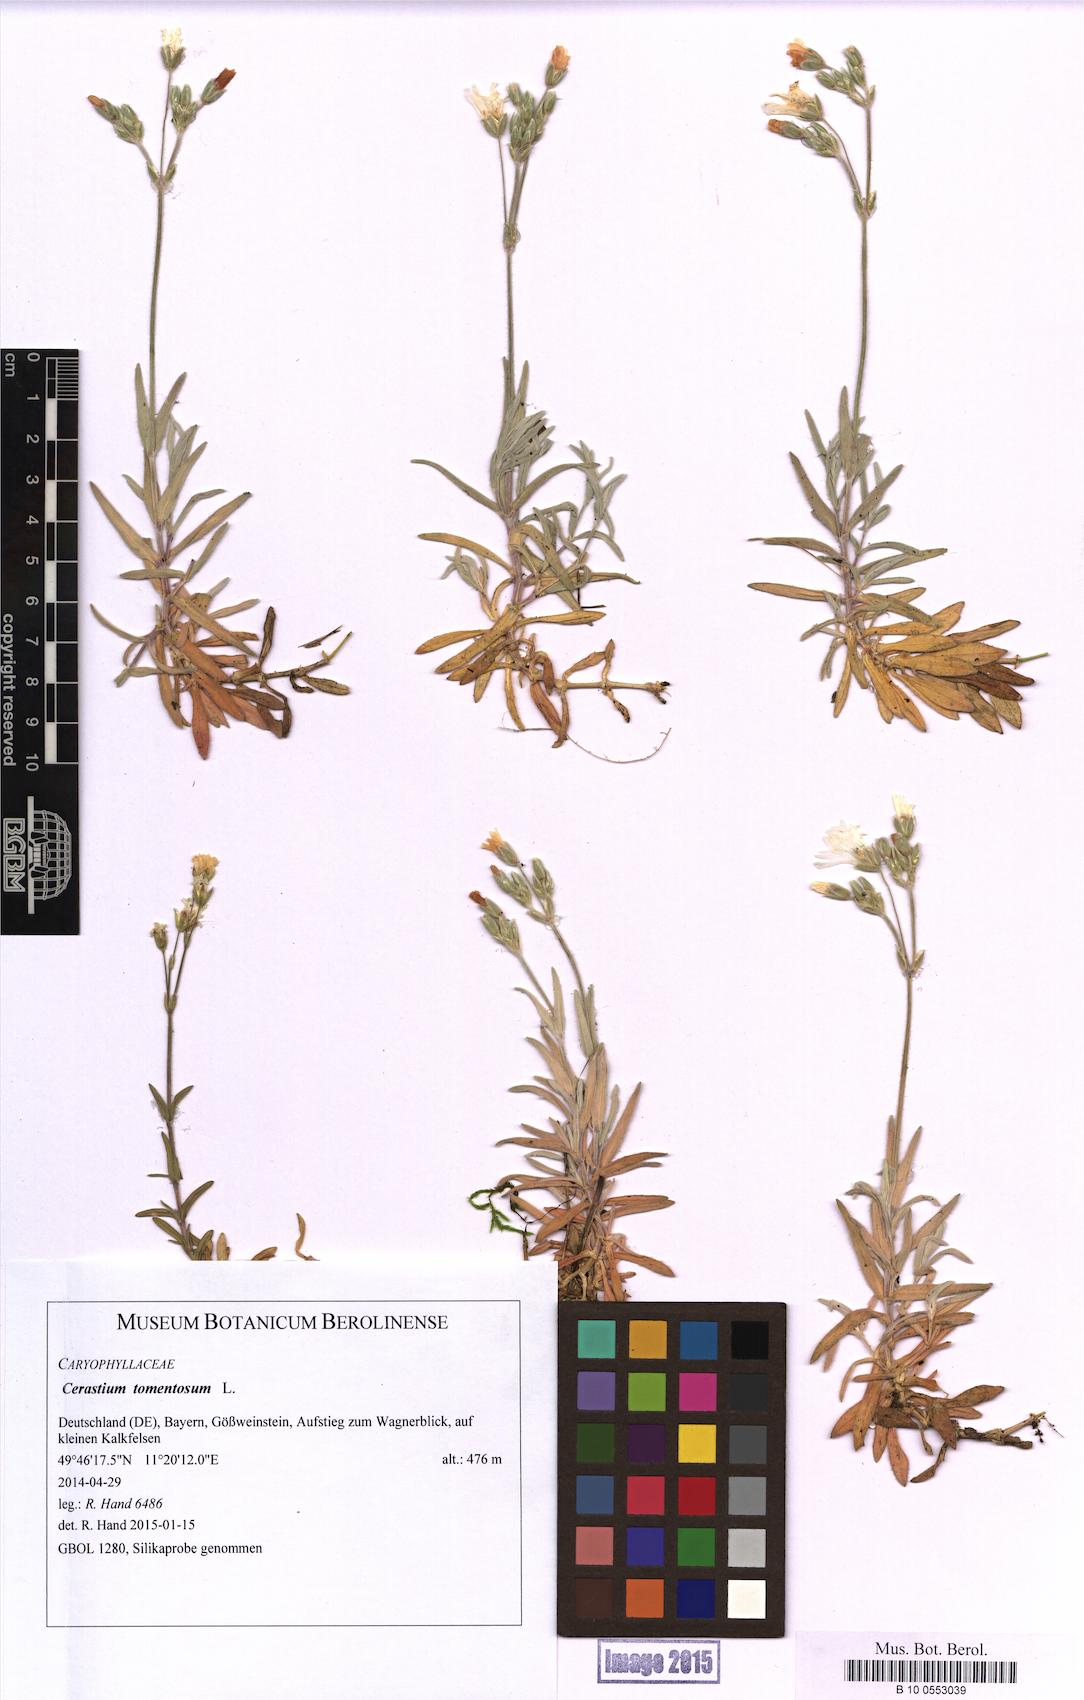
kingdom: Plantae
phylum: Tracheophyta
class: Magnoliopsida
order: Caryophyllales
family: Caryophyllaceae
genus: Cerastium
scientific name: Cerastium tomentosum
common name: Snow-in-summer
